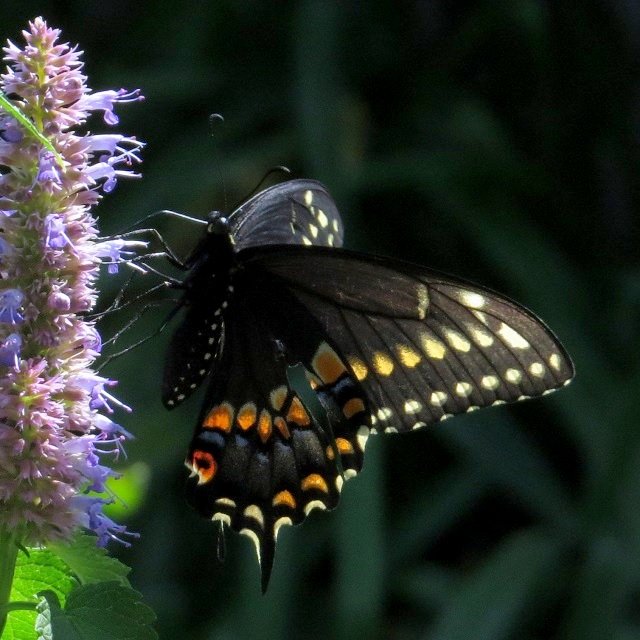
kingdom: Animalia
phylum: Arthropoda
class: Insecta
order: Lepidoptera
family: Papilionidae
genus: Papilio
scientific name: Papilio polyxenes
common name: Black Swallowtail
